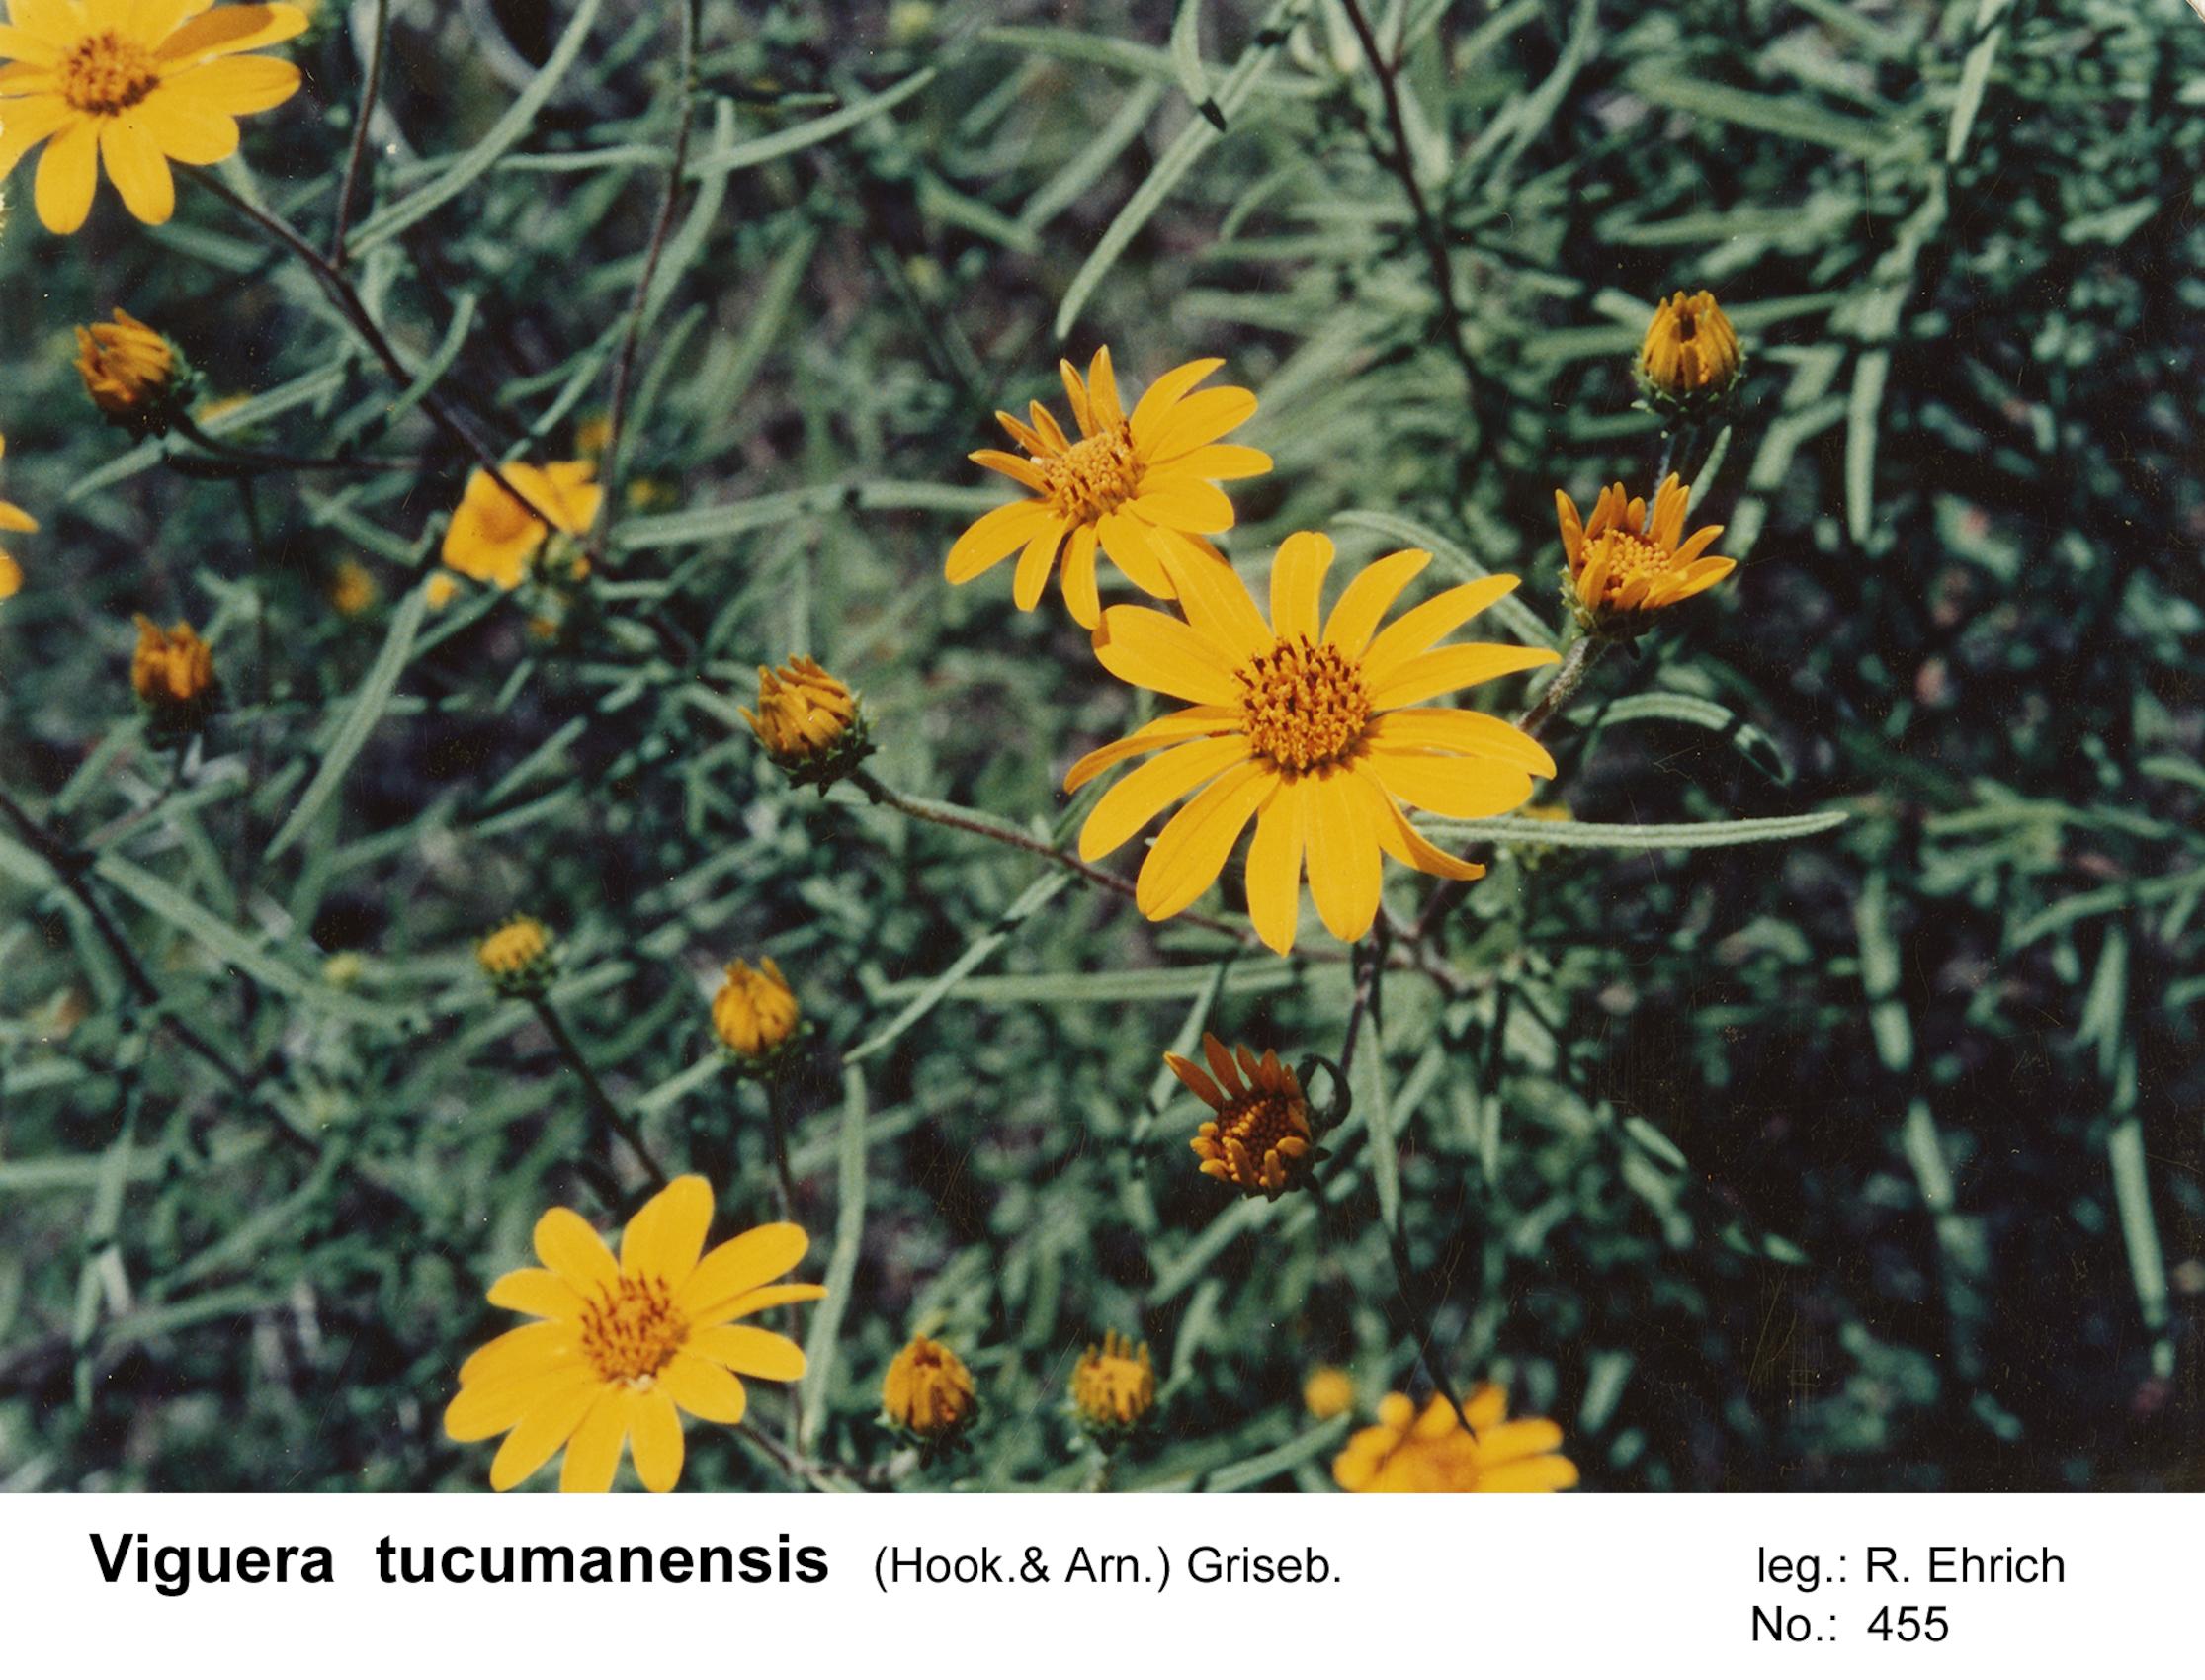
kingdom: Plantae
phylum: Tracheophyta
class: Magnoliopsida
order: Asterales
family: Asteraceae
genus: Aldama
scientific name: Aldama tucumanensis
